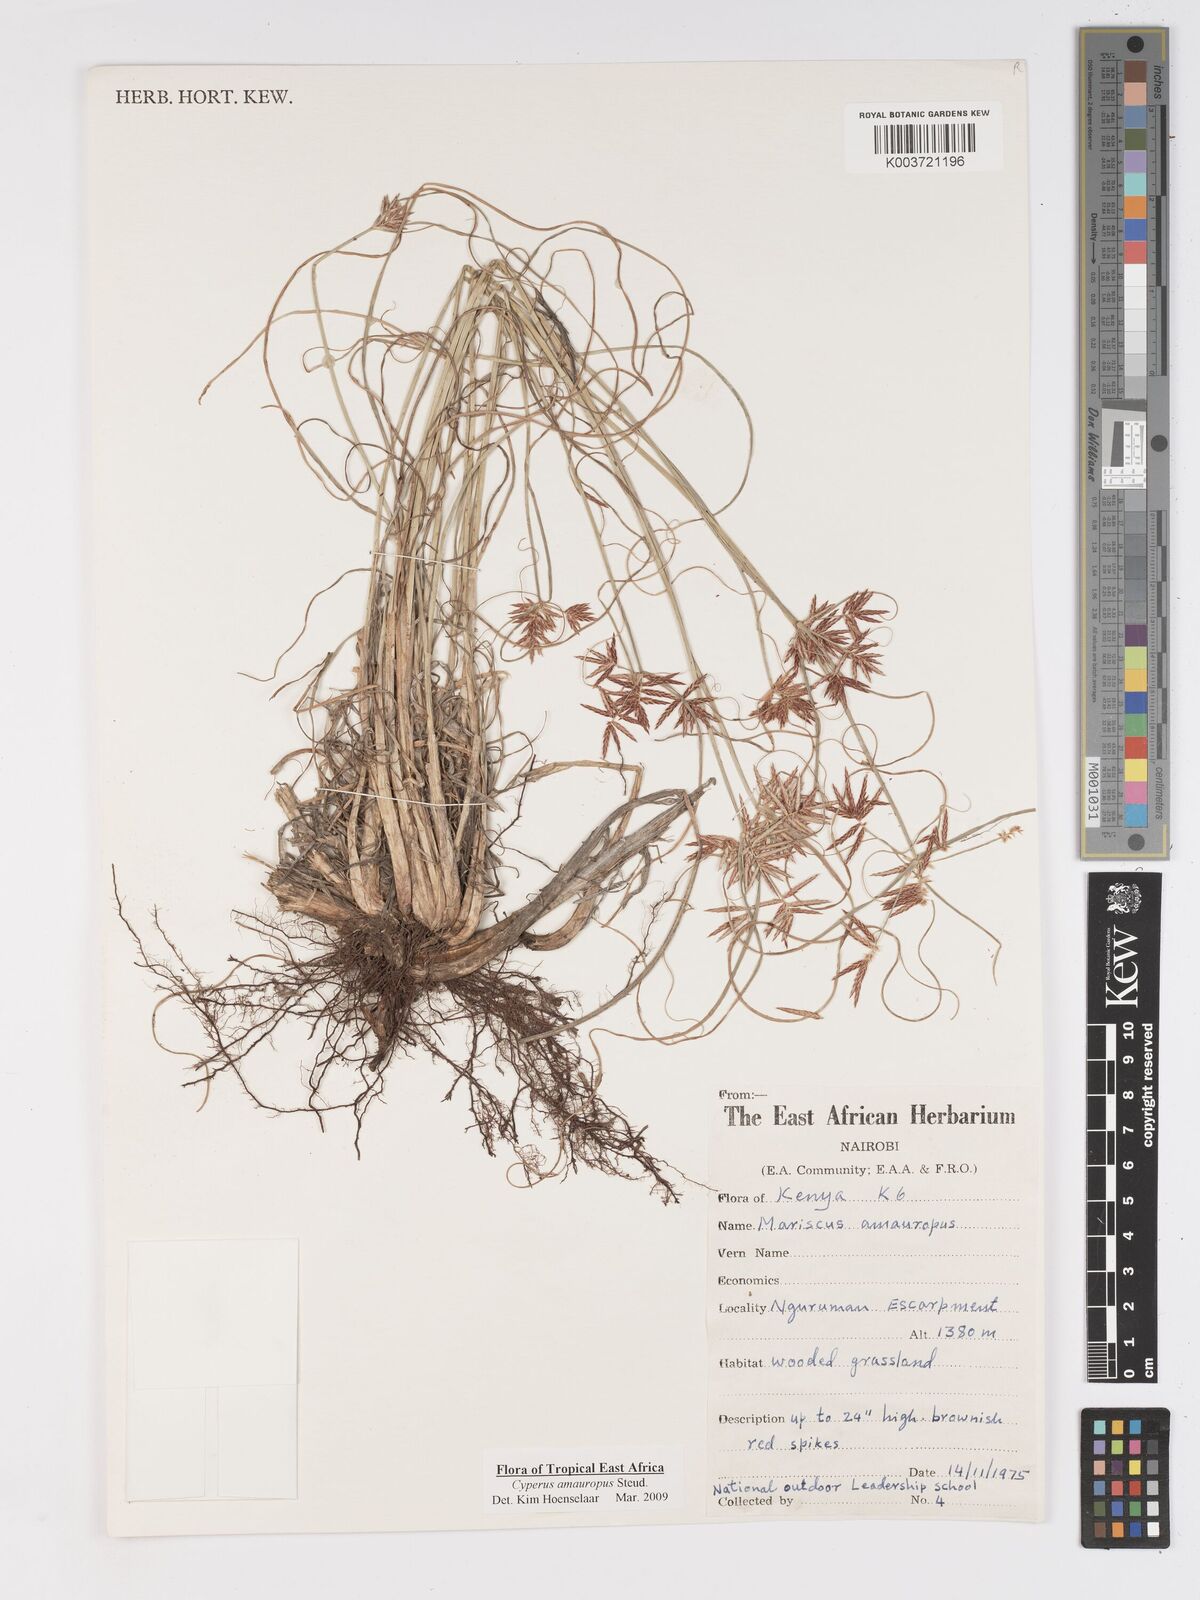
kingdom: Plantae
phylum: Tracheophyta
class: Liliopsida
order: Poales
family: Cyperaceae
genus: Cyperus
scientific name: Cyperus amauropus
